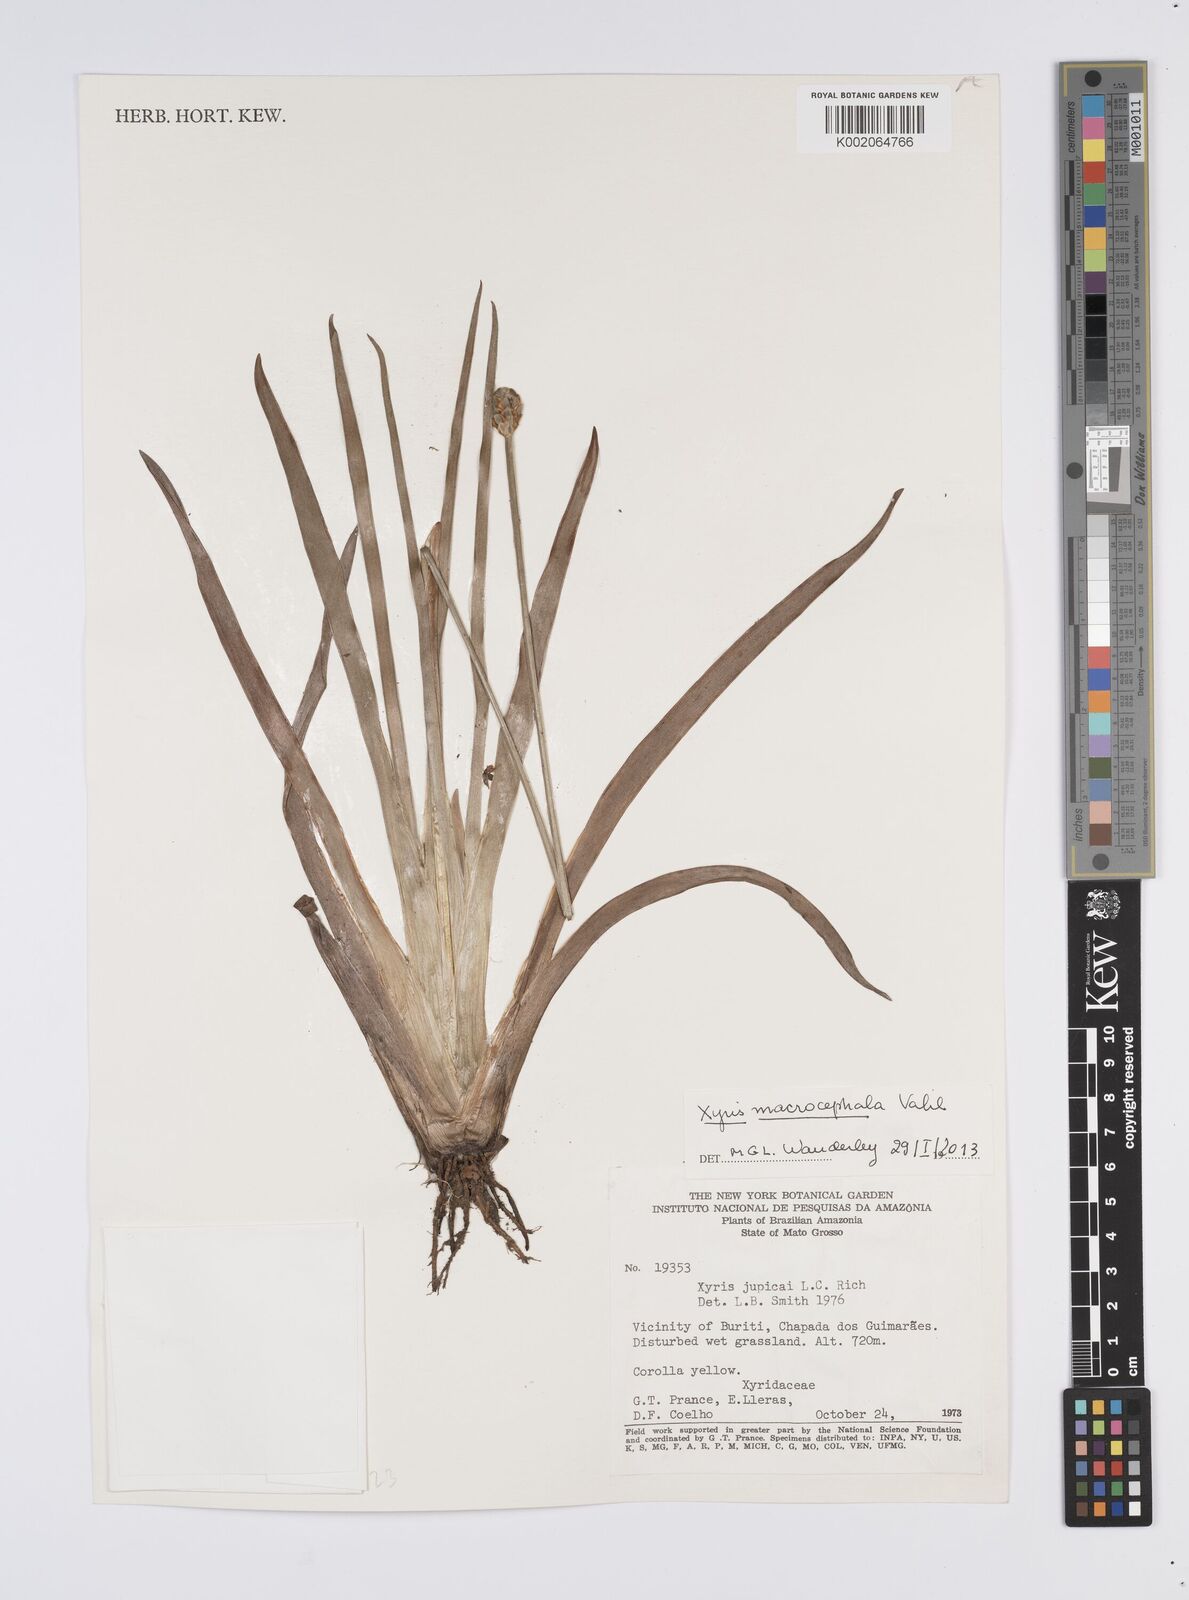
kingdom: Plantae
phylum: Tracheophyta
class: Liliopsida
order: Poales
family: Xyridaceae
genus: Xyris
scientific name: Xyris jupicai
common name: Richard's yelloweyed grass
